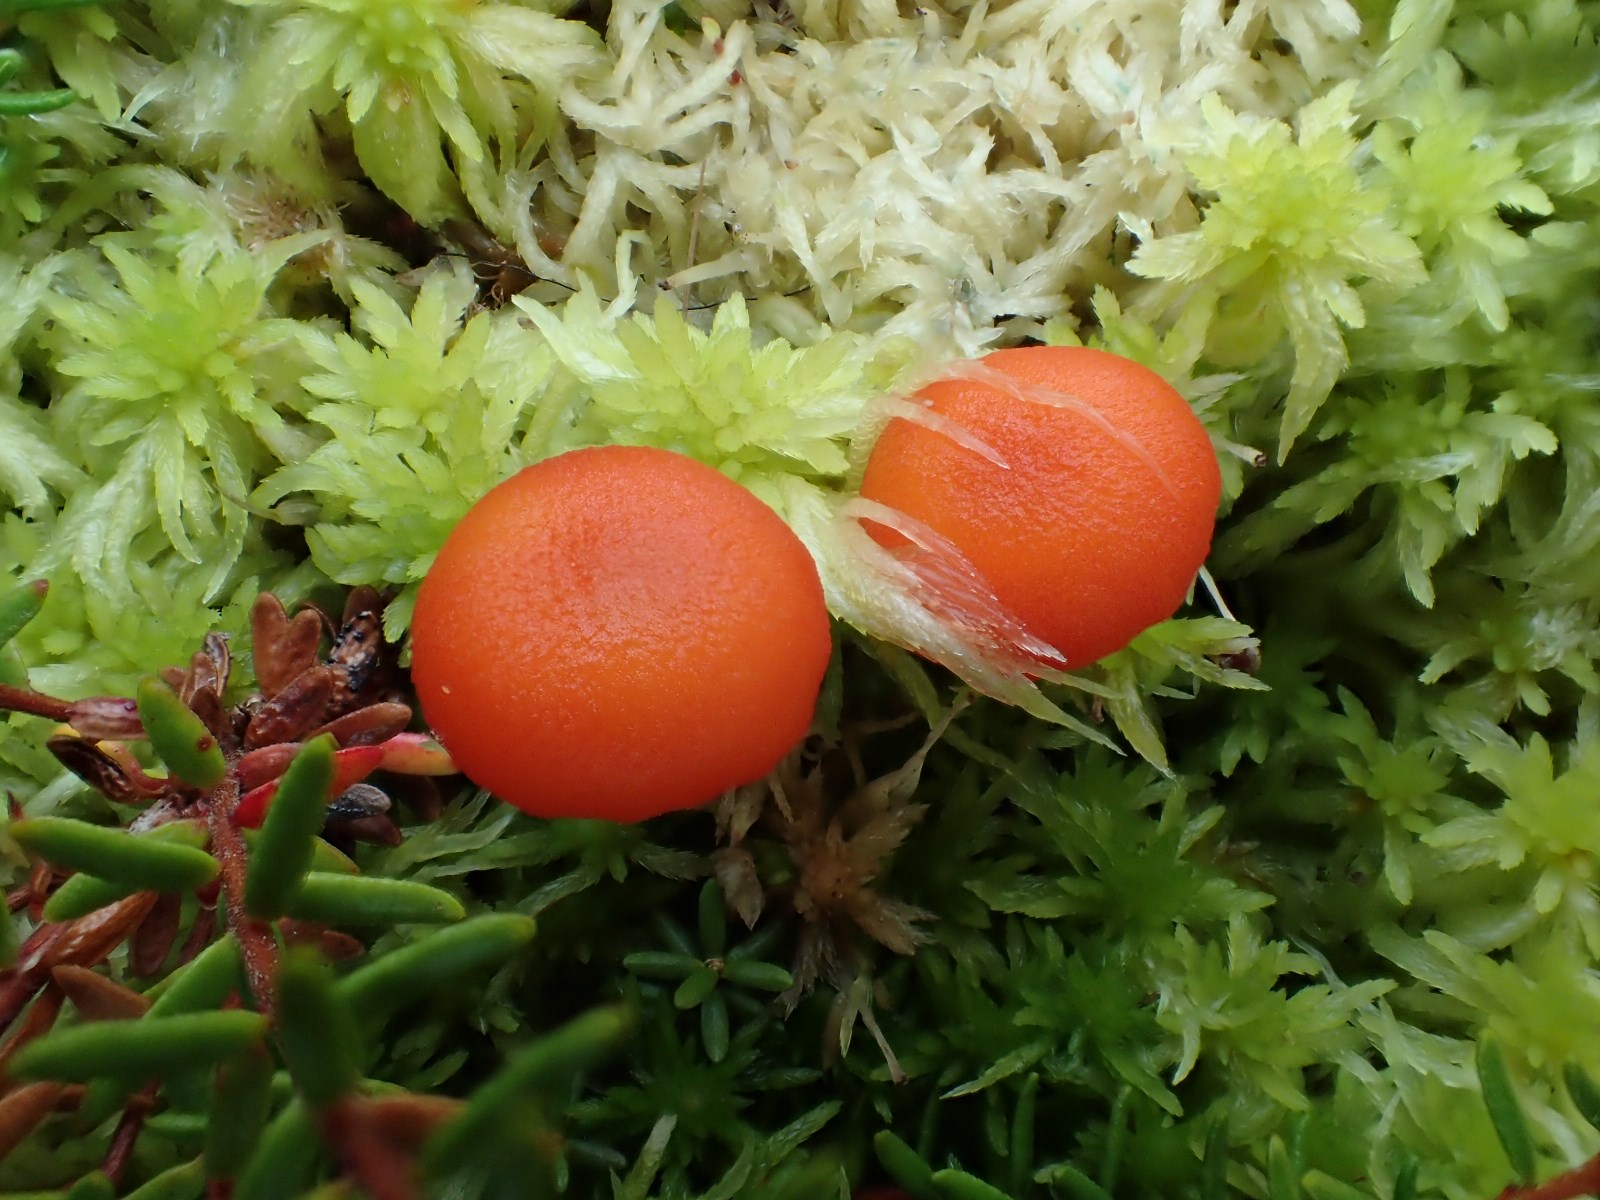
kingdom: Fungi
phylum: Basidiomycota
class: Agaricomycetes
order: Agaricales
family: Hygrophoraceae
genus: Hygrocybe
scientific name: Hygrocybe substrangulata
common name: kær-vokshat
